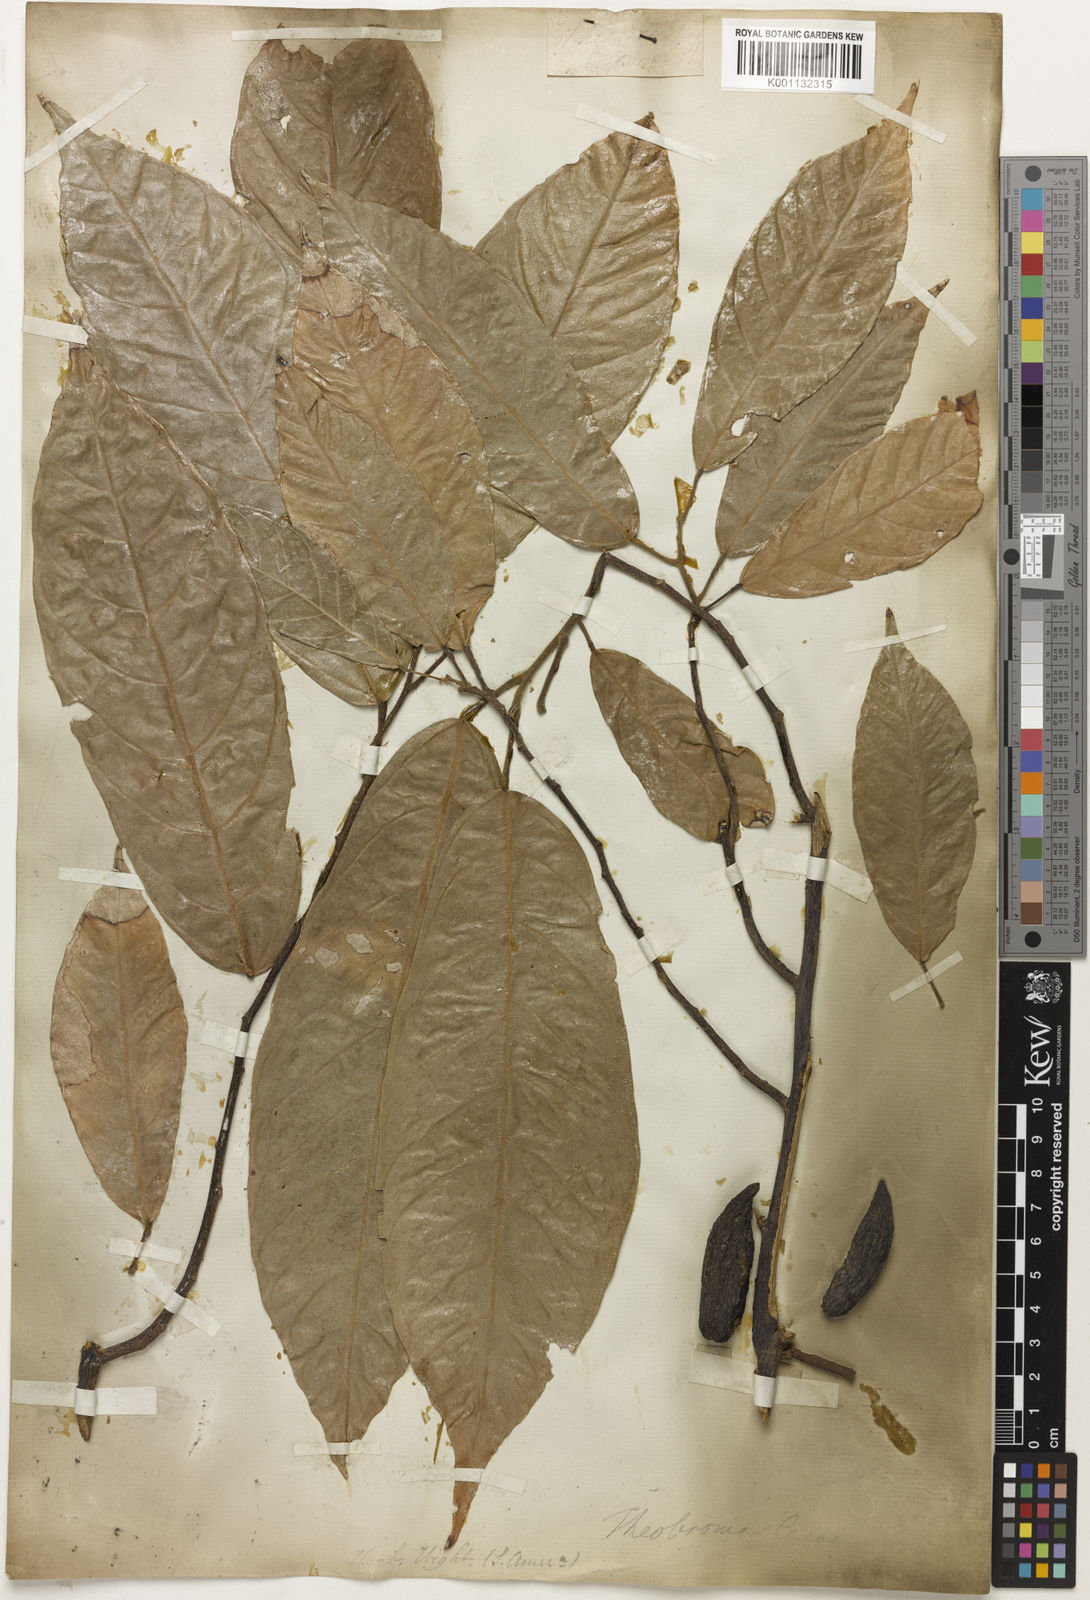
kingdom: Plantae
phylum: Tracheophyta
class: Magnoliopsida
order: Malvales
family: Malvaceae
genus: Theobroma
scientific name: Theobroma cacao
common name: Cocoa
